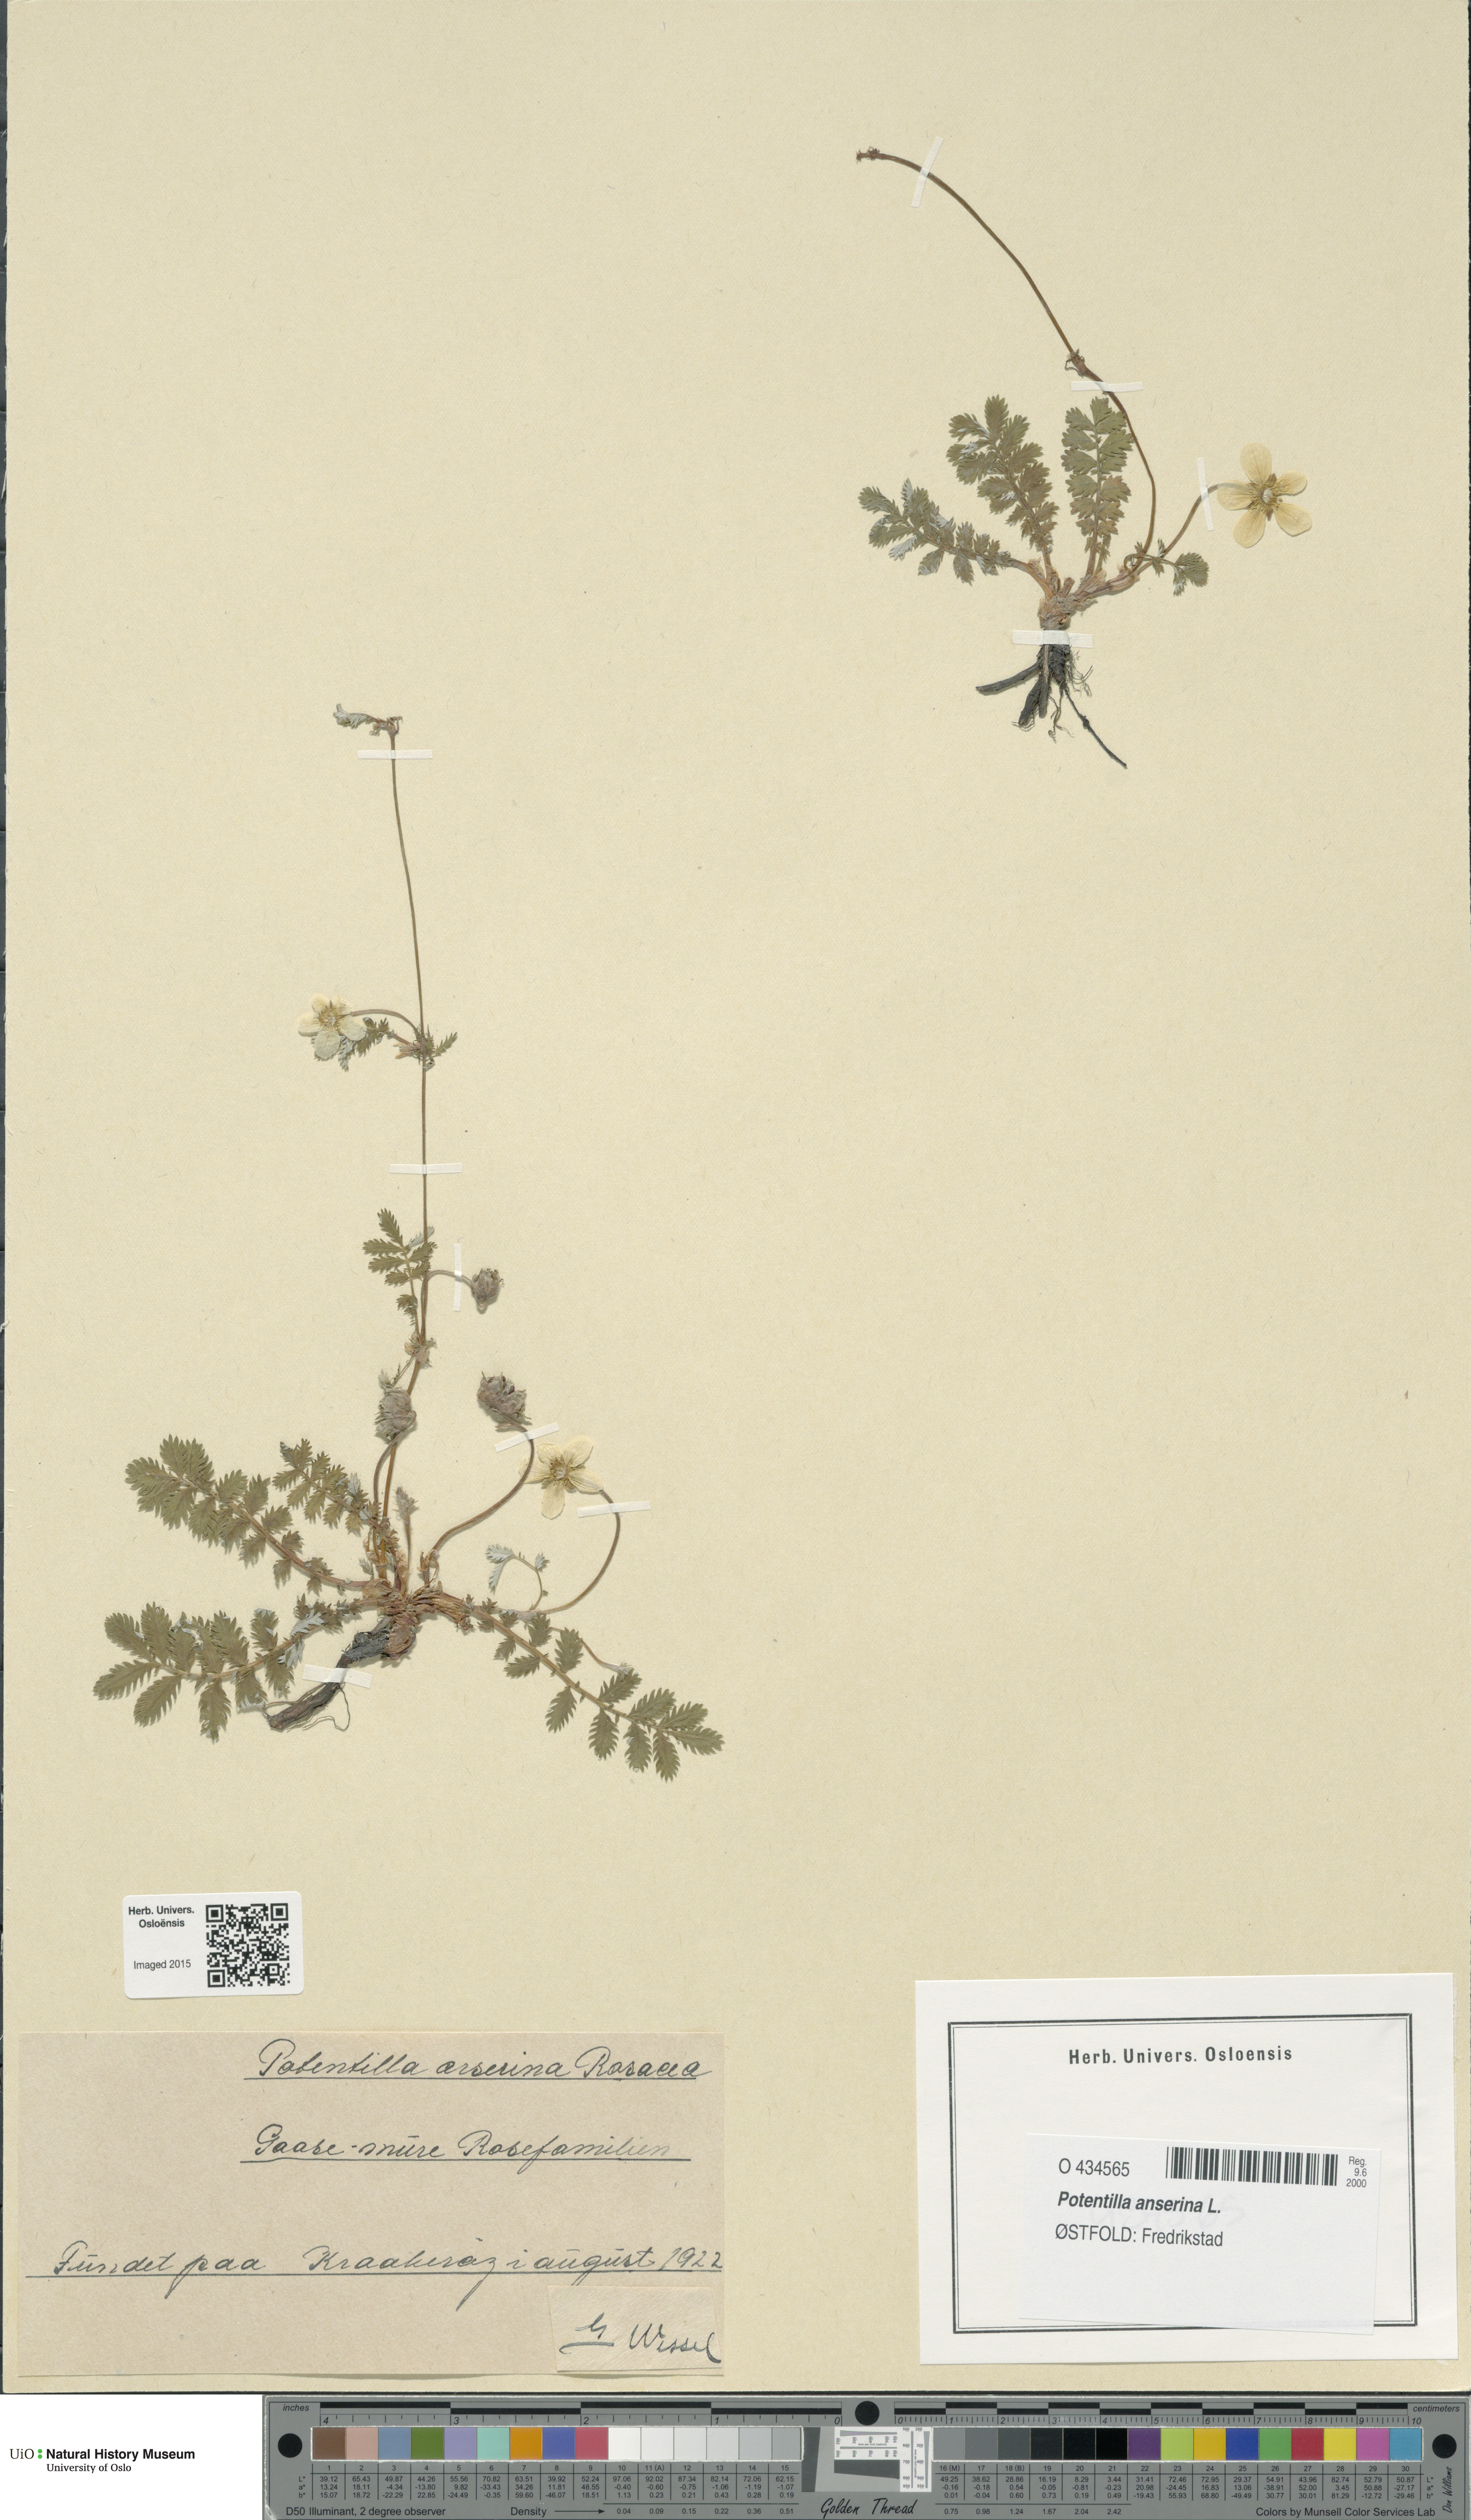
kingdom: Plantae
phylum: Tracheophyta
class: Magnoliopsida
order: Rosales
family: Rosaceae
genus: Argentina
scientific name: Argentina anserina
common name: Common silverweed
